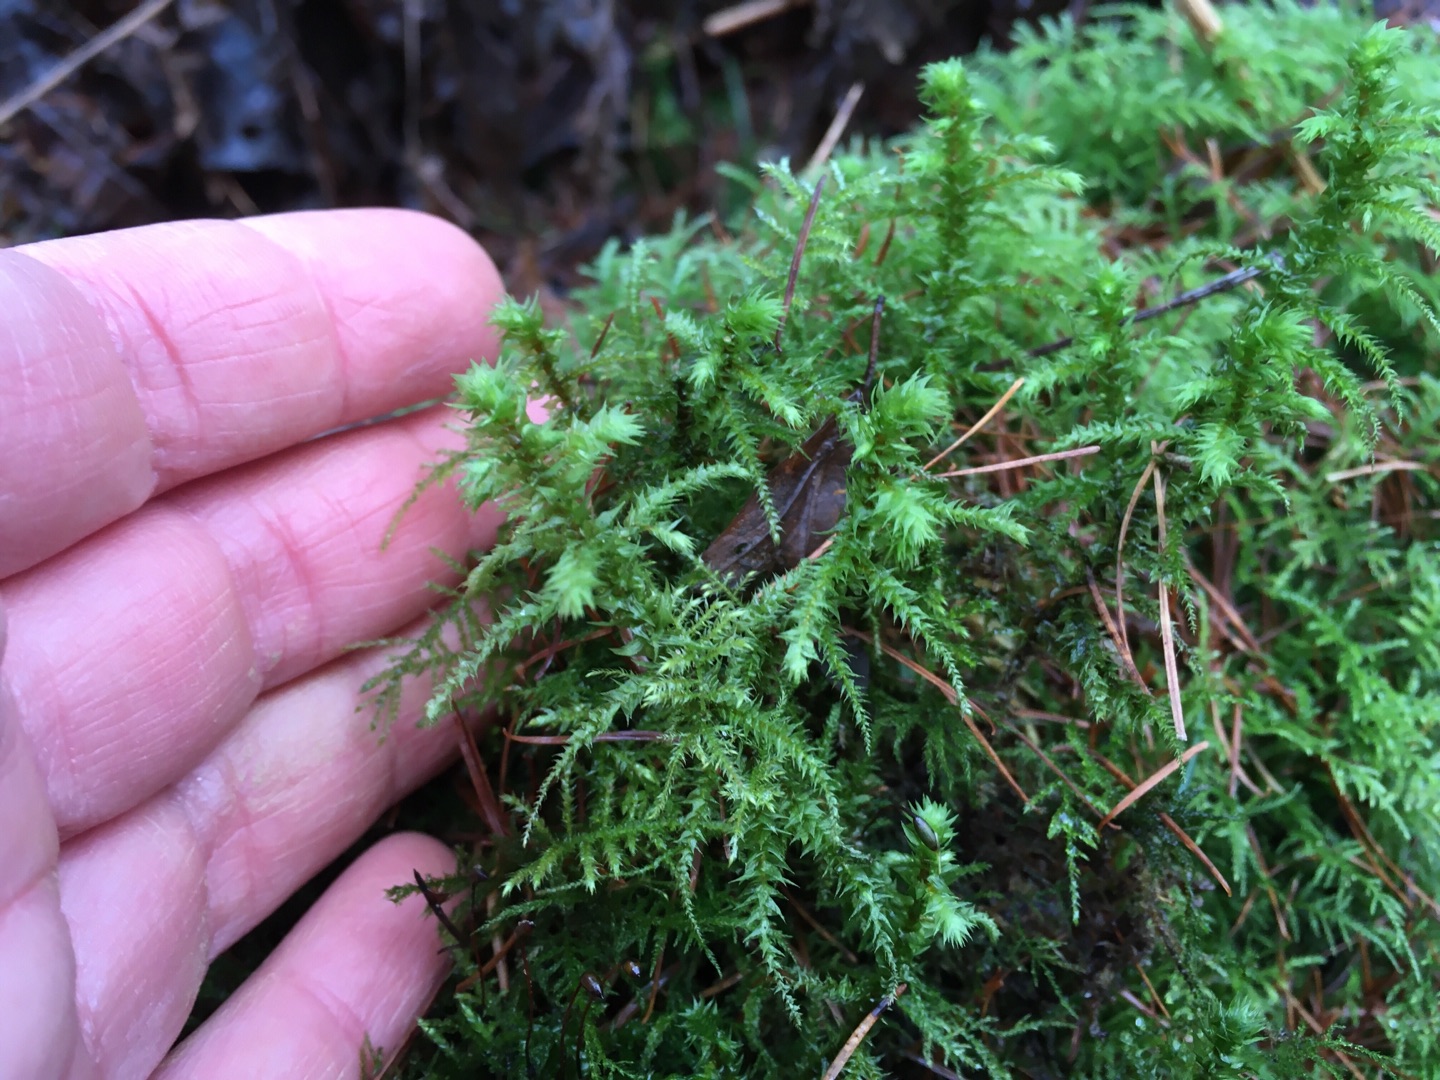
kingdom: Plantae
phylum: Bryophyta
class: Bryopsida
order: Hypnales
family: Hylocomiaceae
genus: Hylocomiadelphus
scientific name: Hylocomiadelphus triquetrus
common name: Stor kransemos
